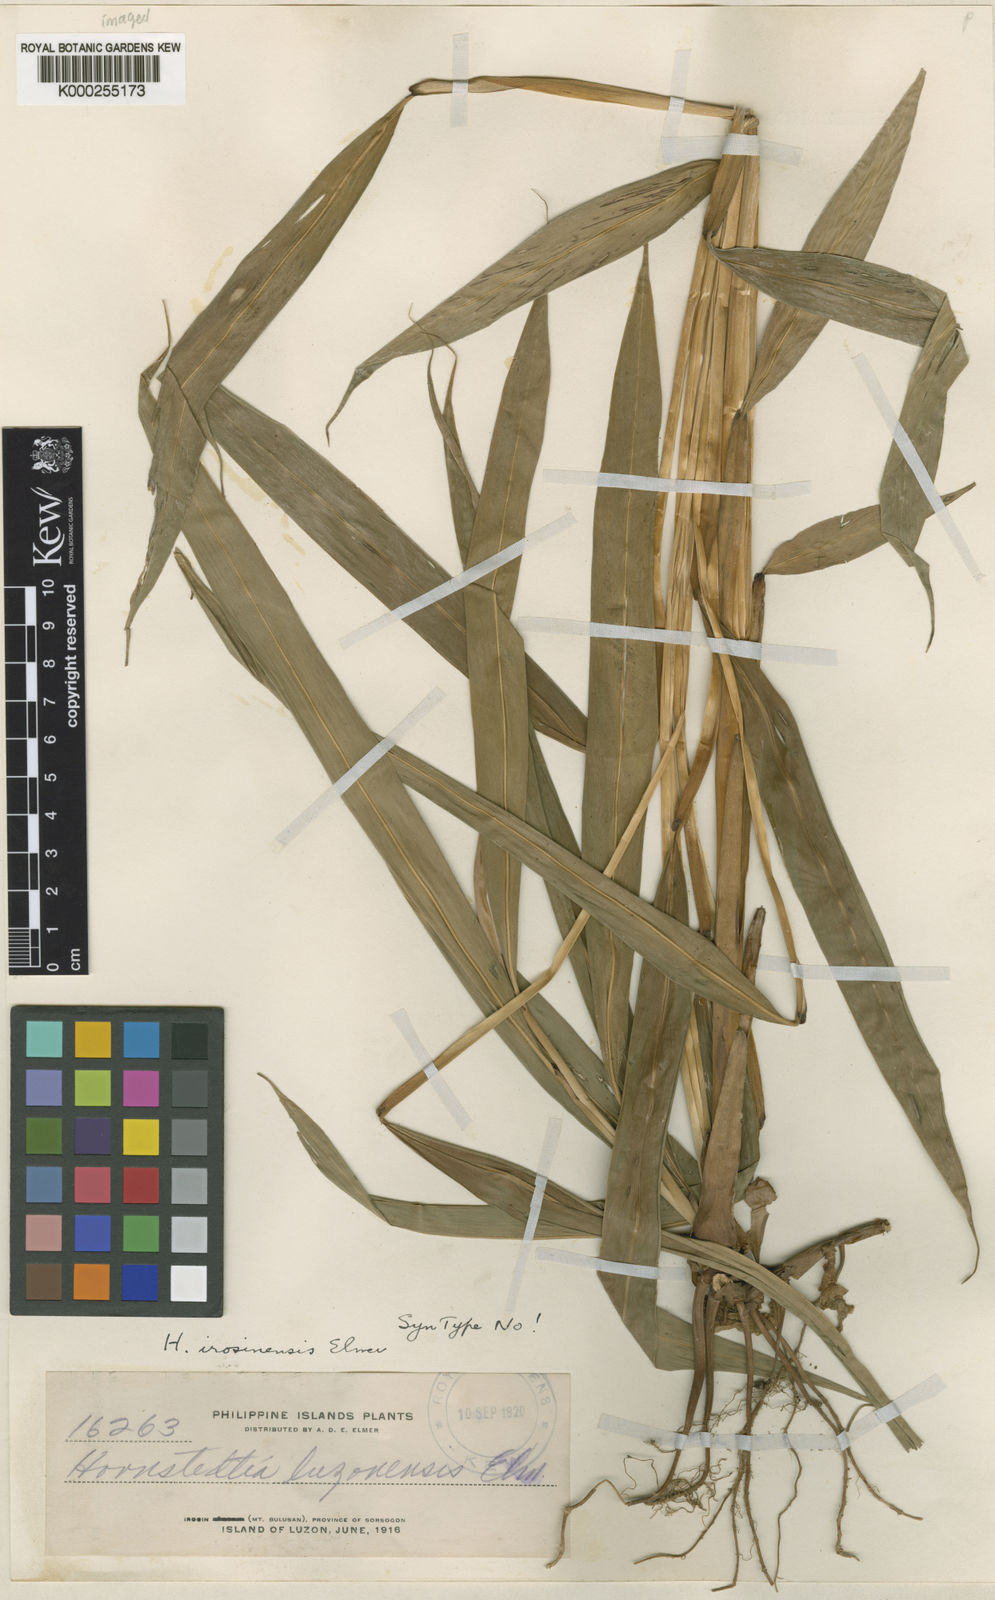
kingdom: Plantae
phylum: Tracheophyta
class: Liliopsida
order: Zingiberales
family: Zingiberaceae
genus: Hornstedtia
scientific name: Hornstedtia irosinensis
